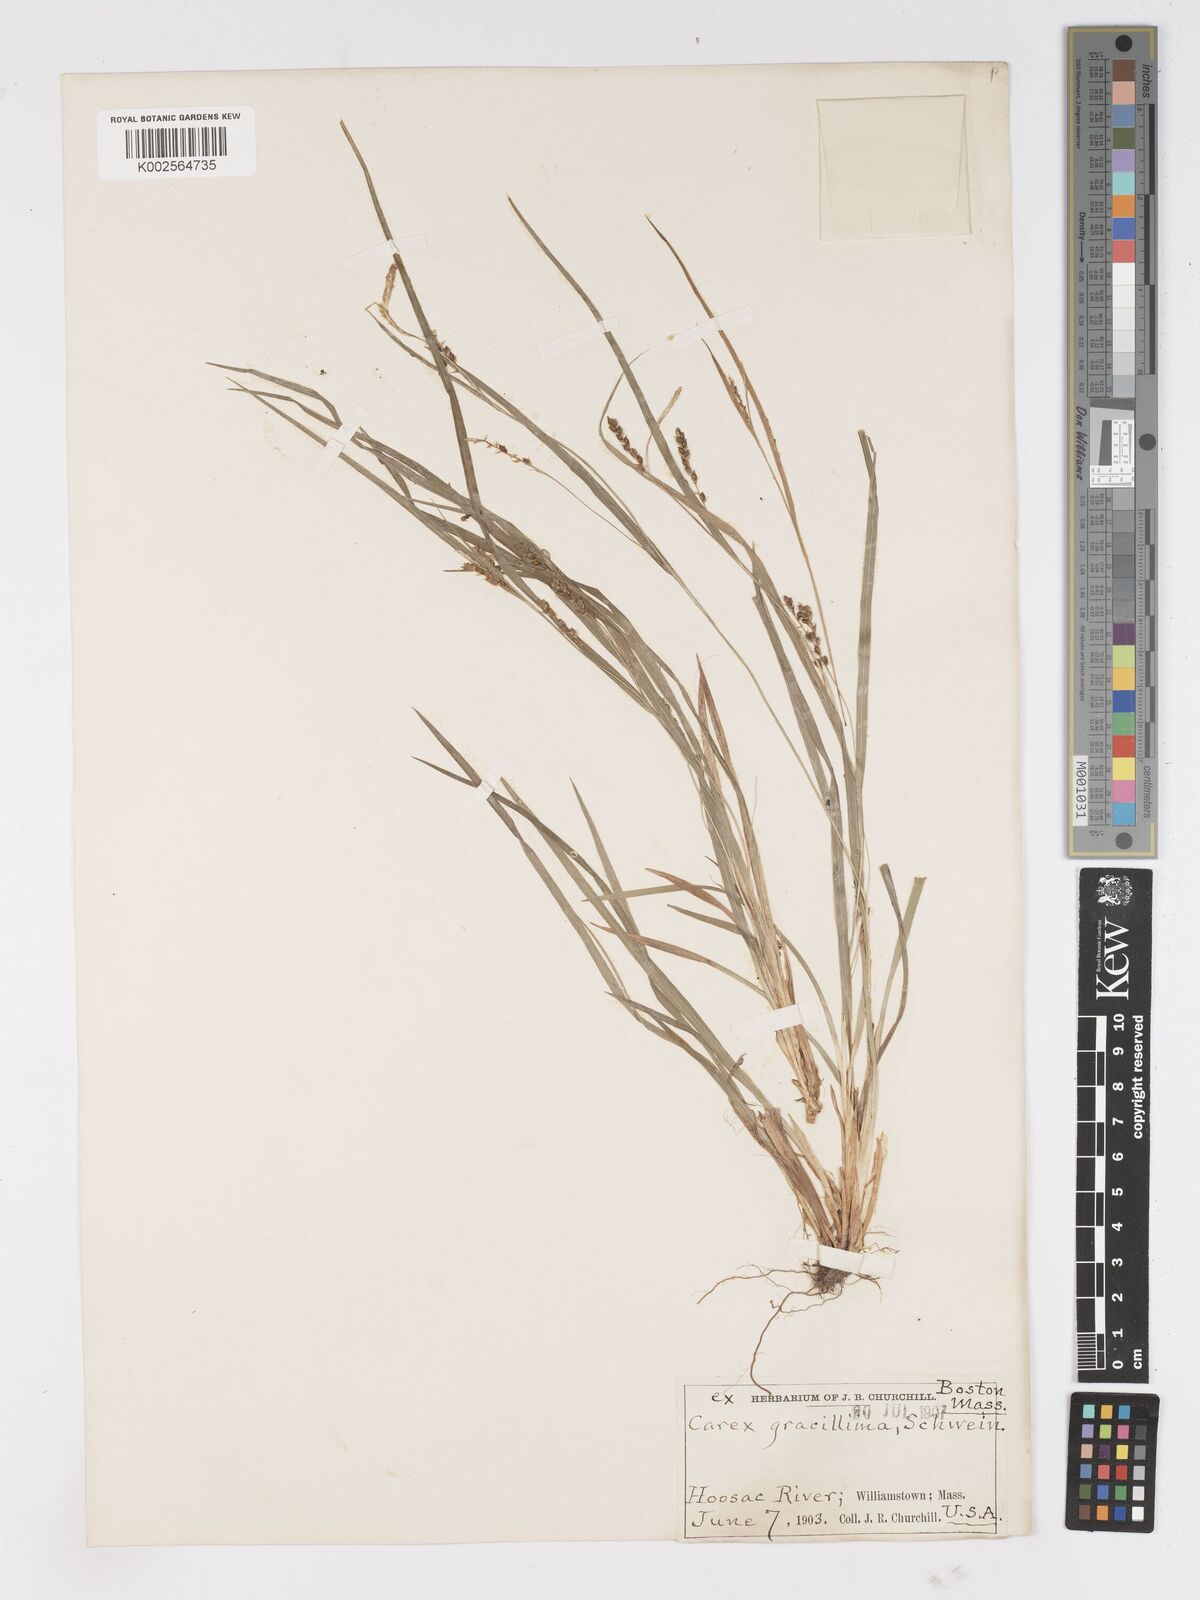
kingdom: Plantae
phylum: Tracheophyta
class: Liliopsida
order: Poales
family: Cyperaceae
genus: Carex
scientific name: Carex
